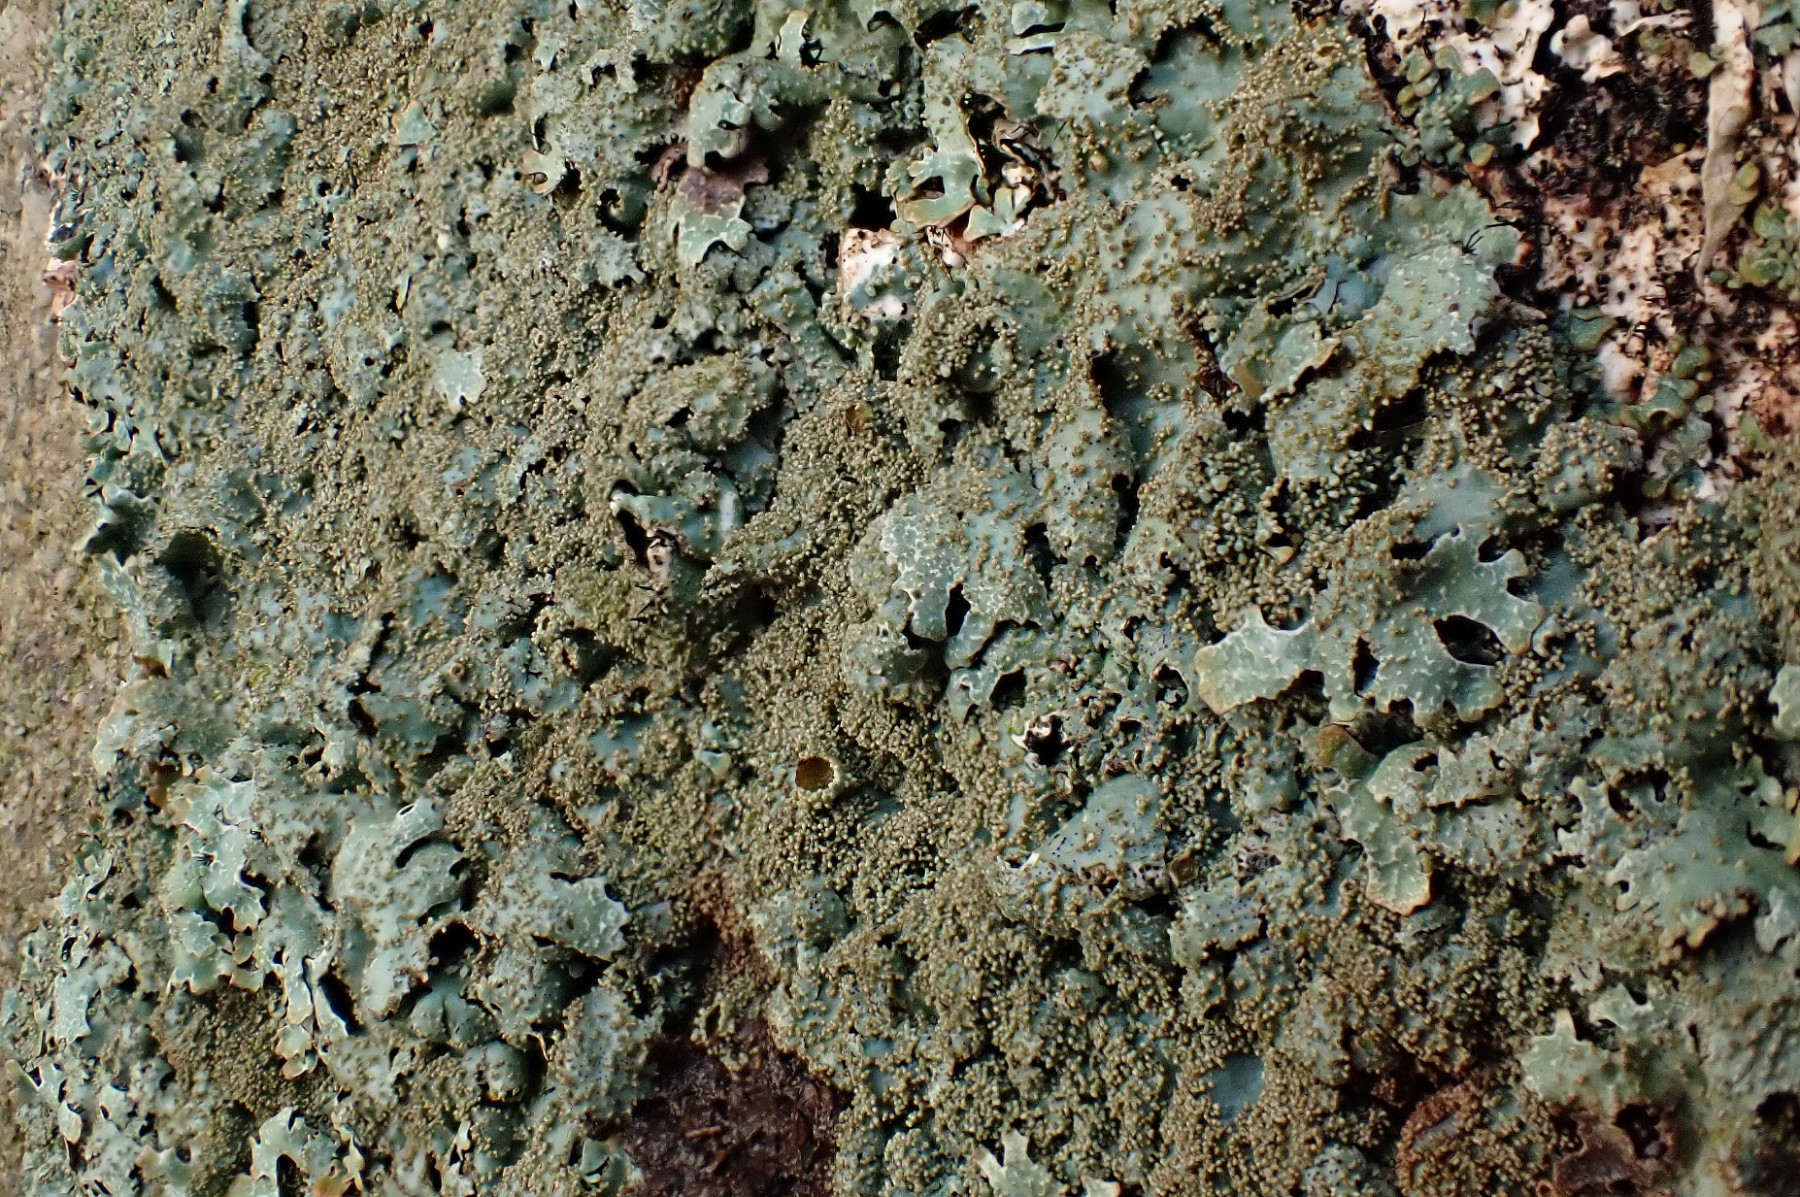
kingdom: Fungi
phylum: Ascomycota
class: Lecanoromycetes
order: Lecanorales
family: Parmeliaceae
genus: Parmelia
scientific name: Parmelia
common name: farve-skållav
